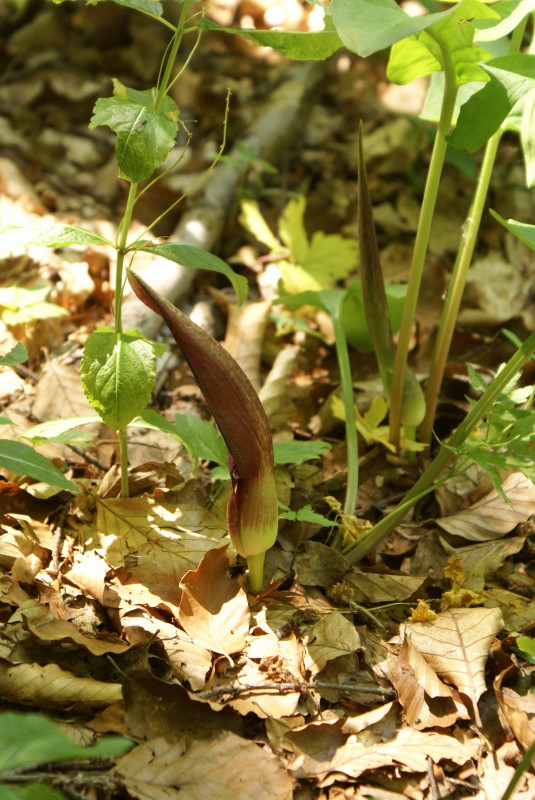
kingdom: Plantae
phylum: Tracheophyta
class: Liliopsida
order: Alismatales
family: Araceae
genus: Arum
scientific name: Arum orientale
